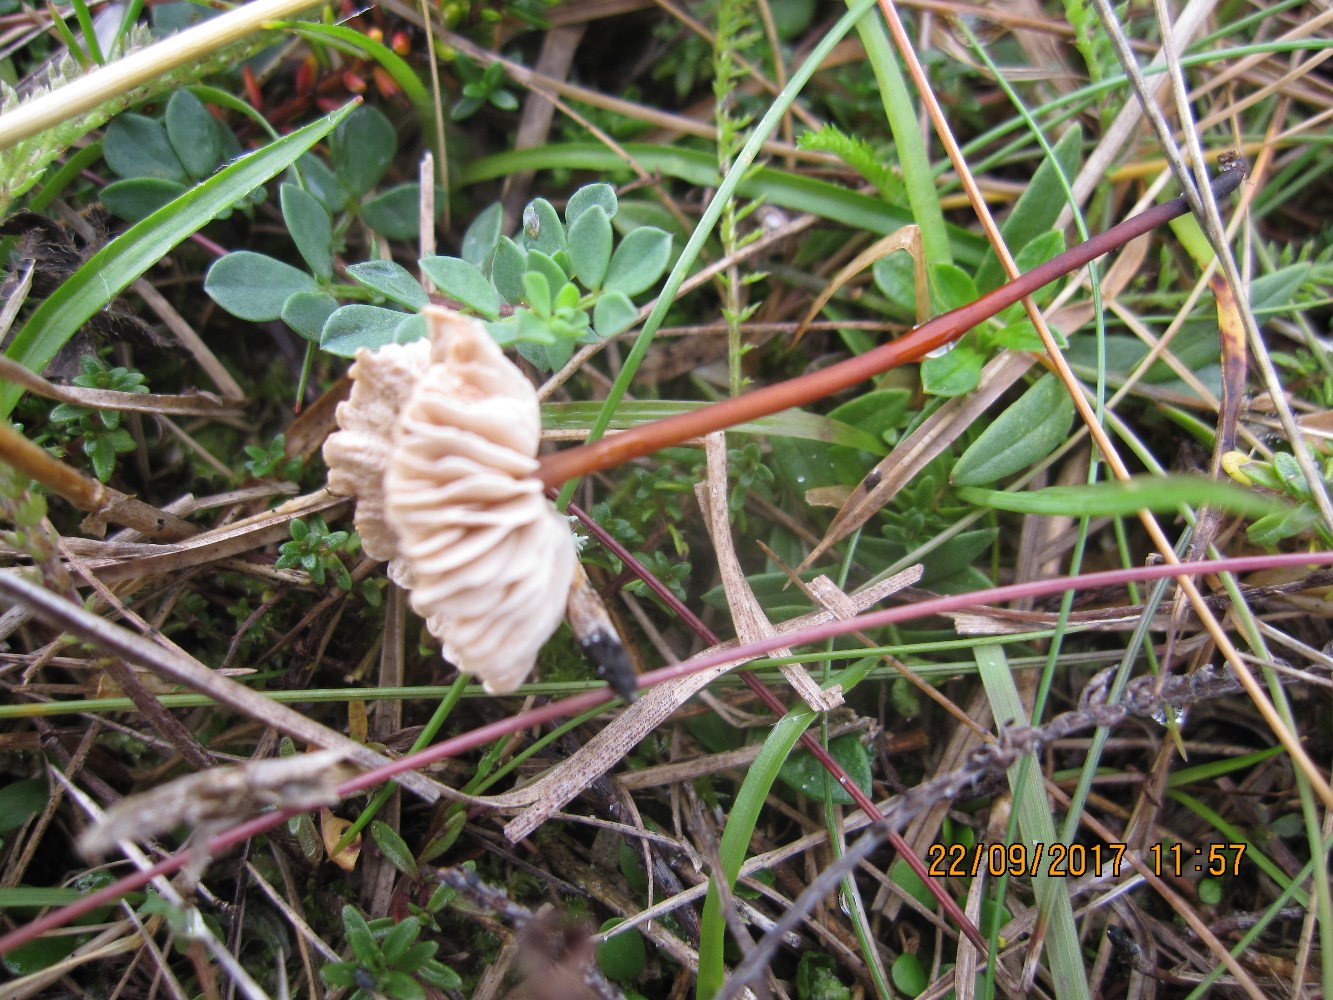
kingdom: Fungi
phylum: Basidiomycota
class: Agaricomycetes
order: Agaricales
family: Omphalotaceae
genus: Mycetinis
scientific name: Mycetinis scorodonius
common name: lille løghat
